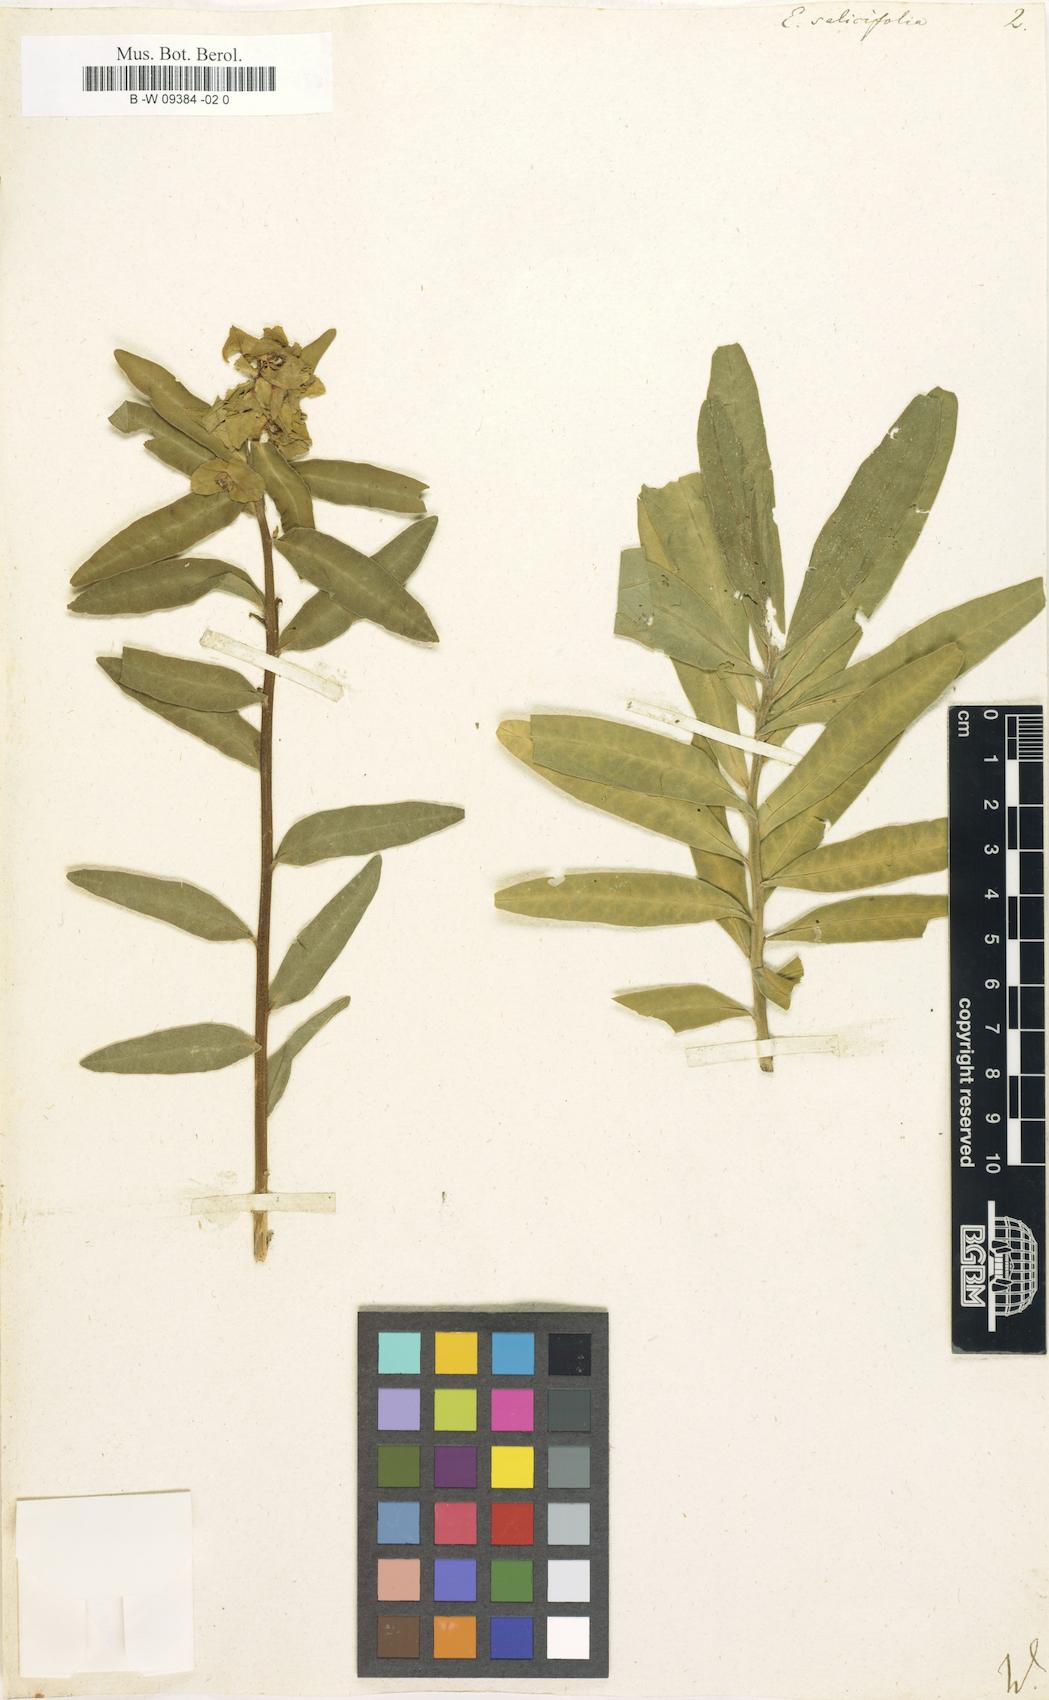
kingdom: Plantae
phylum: Tracheophyta
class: Magnoliopsida
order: Malpighiales
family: Euphorbiaceae
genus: Euphorbia
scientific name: Euphorbia salicifolia
